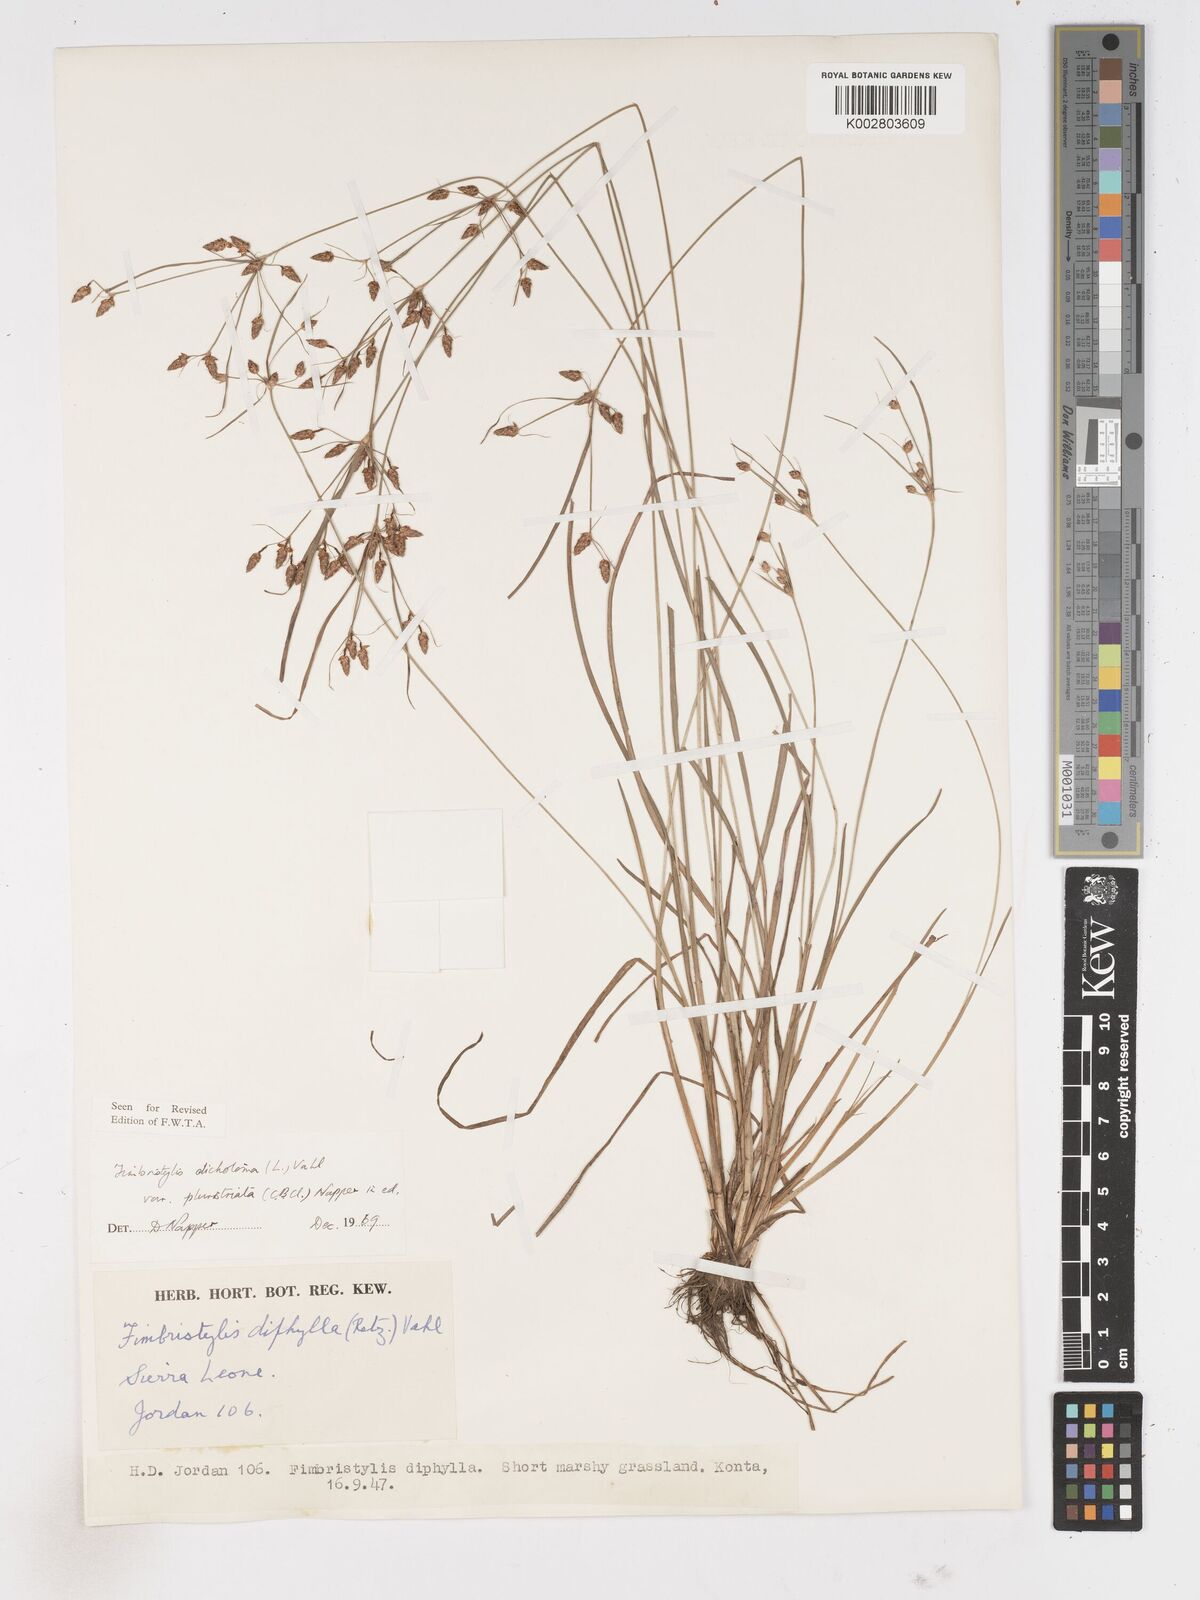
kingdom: Plantae
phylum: Tracheophyta
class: Liliopsida
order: Poales
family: Cyperaceae
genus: Fimbristylis
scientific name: Fimbristylis dichotoma
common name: Forked fimbry
